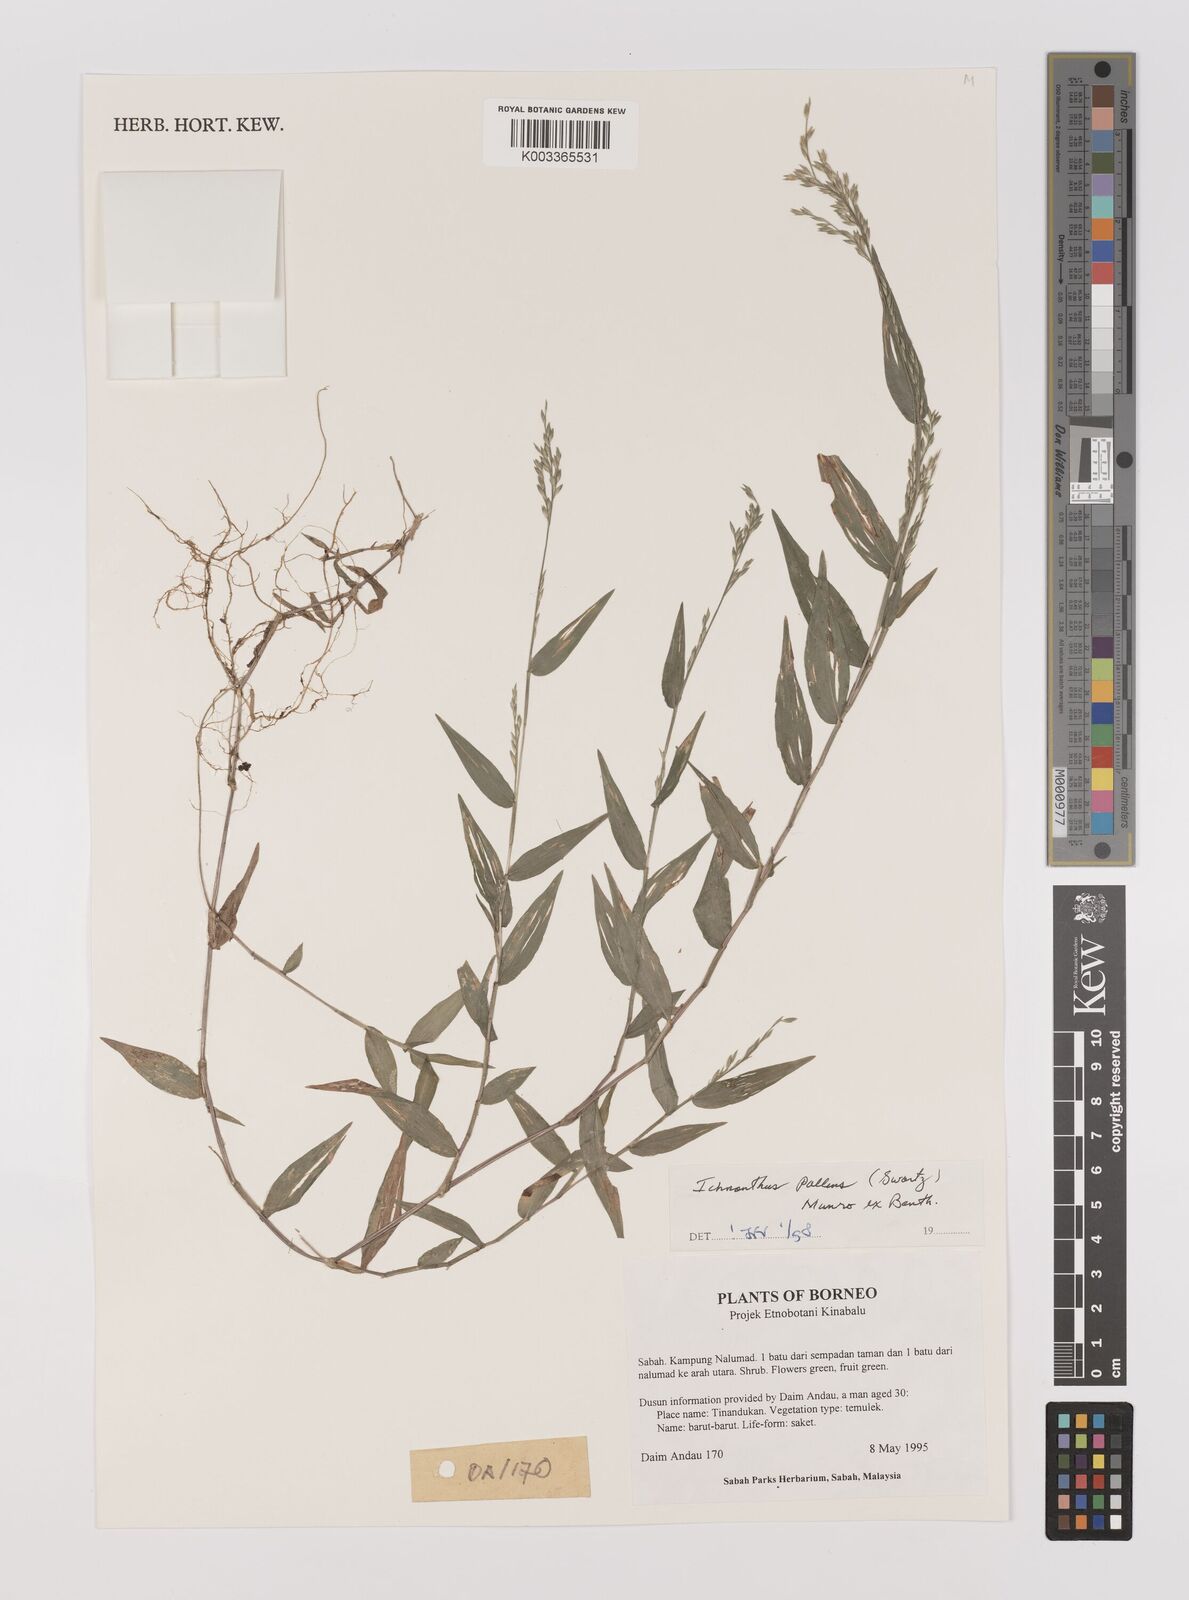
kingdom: Plantae
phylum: Tracheophyta
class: Liliopsida
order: Poales
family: Poaceae
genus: Ichnanthus
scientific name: Ichnanthus pallens
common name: Water grass
